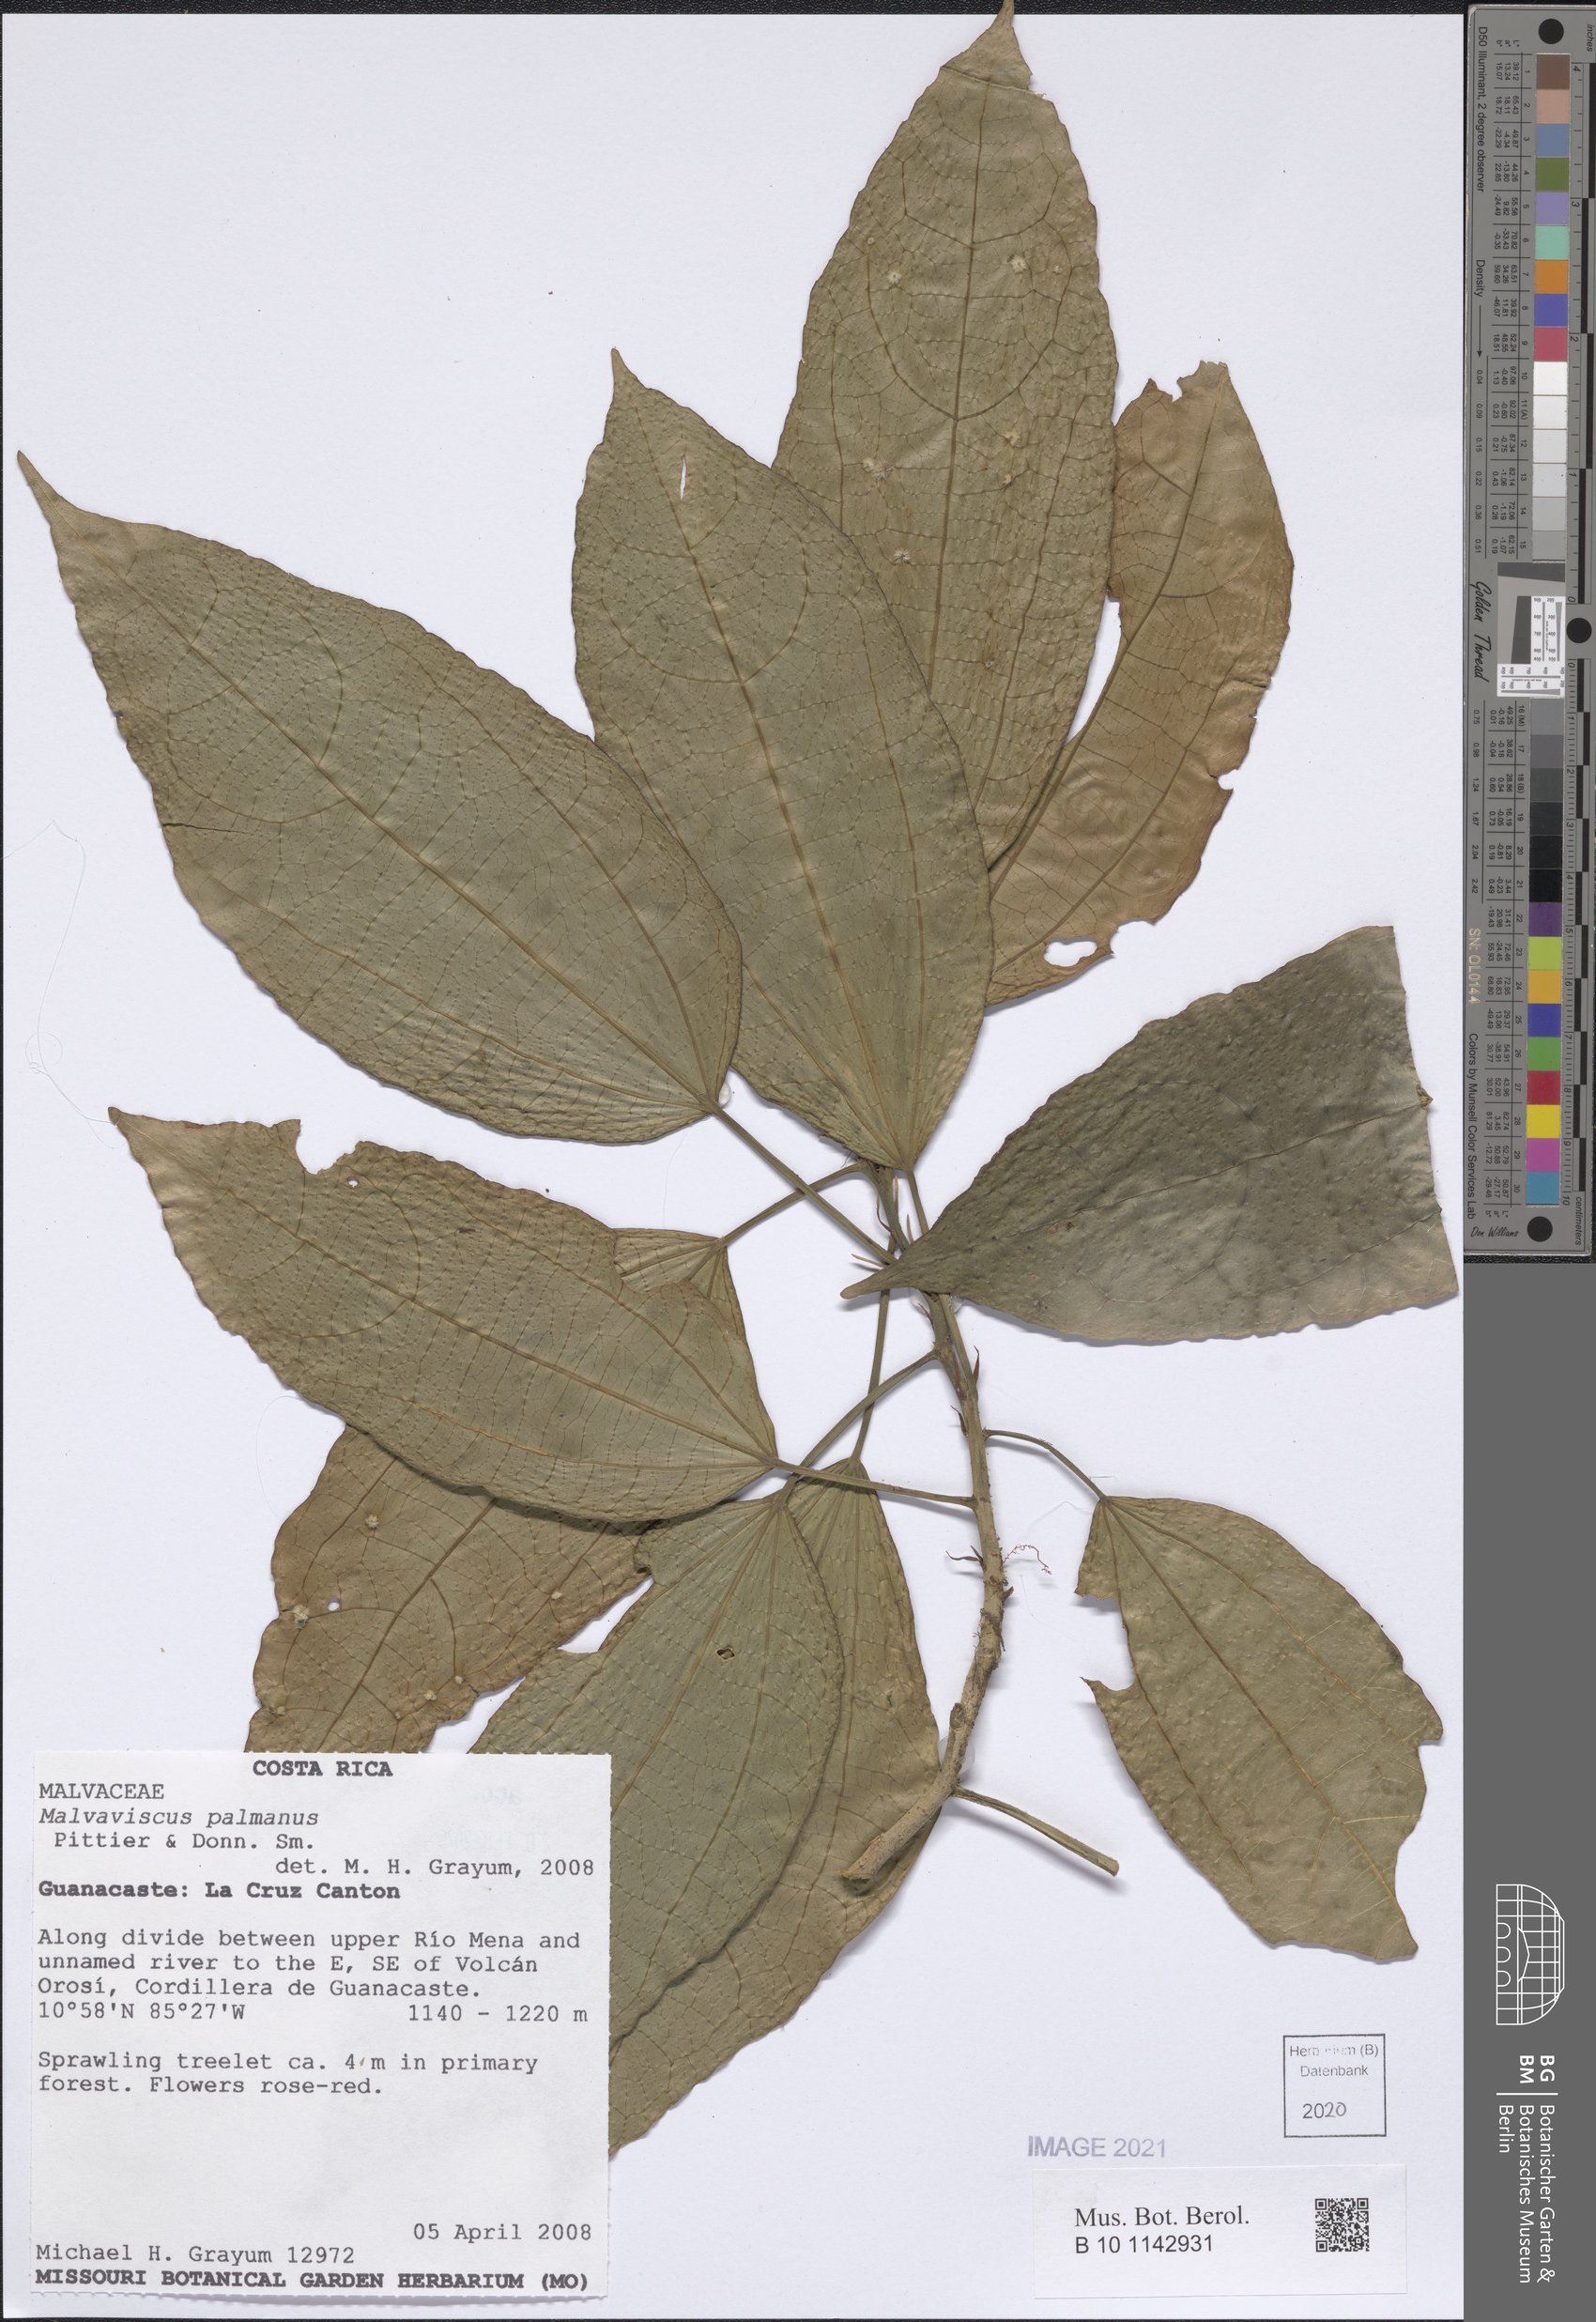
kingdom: Plantae
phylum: Tracheophyta
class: Magnoliopsida
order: Malvales
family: Malvaceae
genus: Malvaviscus
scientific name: Malvaviscus palmanus
